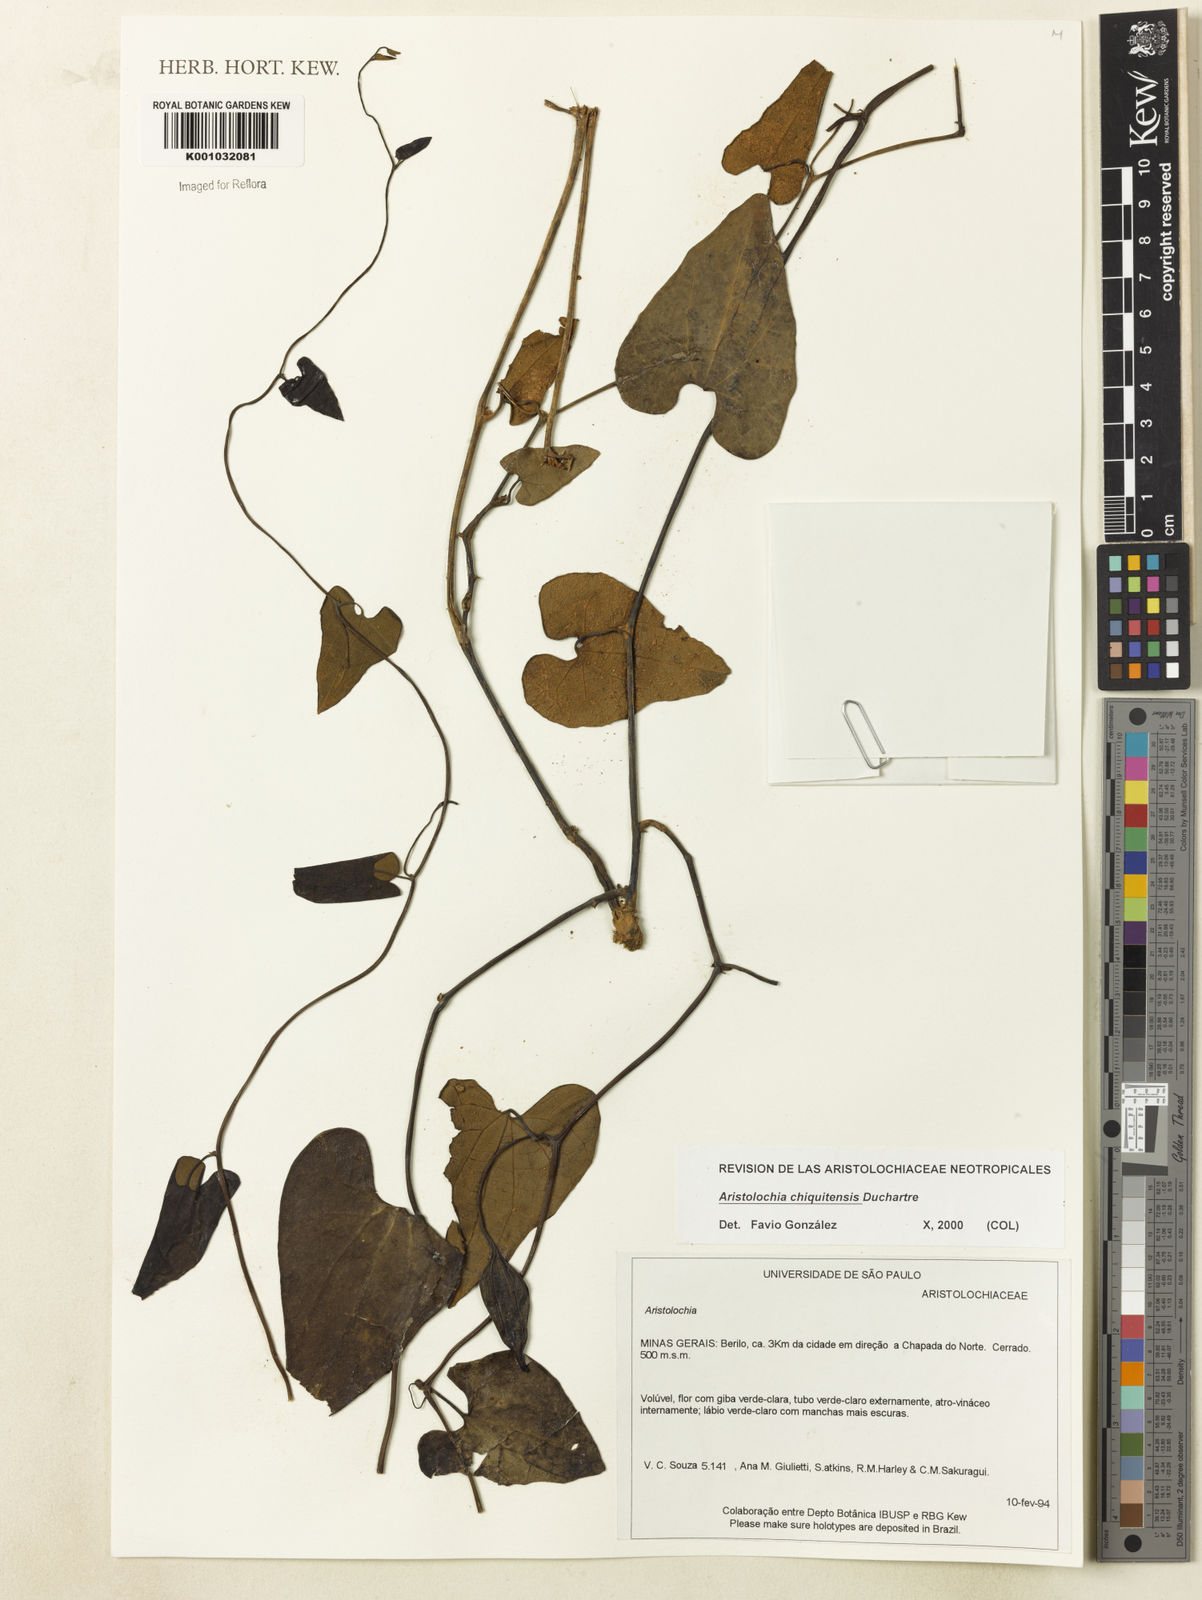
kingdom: Plantae
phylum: Tracheophyta
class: Magnoliopsida
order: Piperales
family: Aristolochiaceae
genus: Aristolochia
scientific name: Aristolochia chiquitensis
